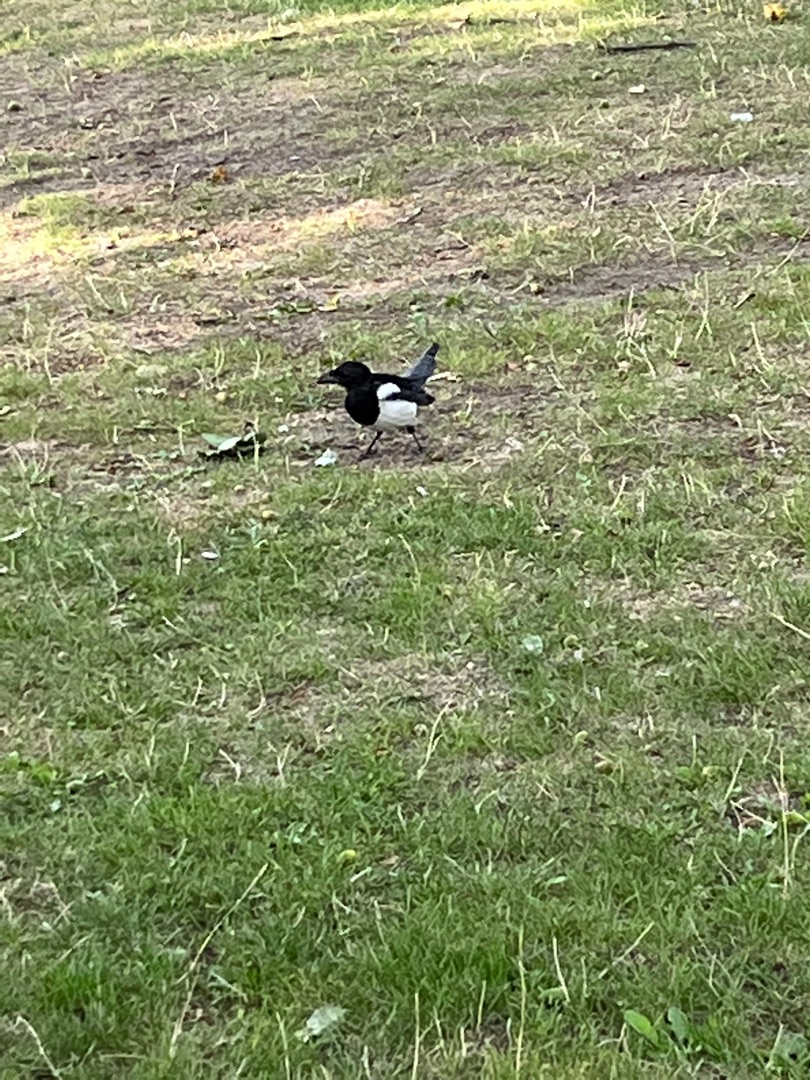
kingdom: Animalia
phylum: Chordata
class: Aves
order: Passeriformes
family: Corvidae
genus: Pica
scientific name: Pica pica
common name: Husskade
